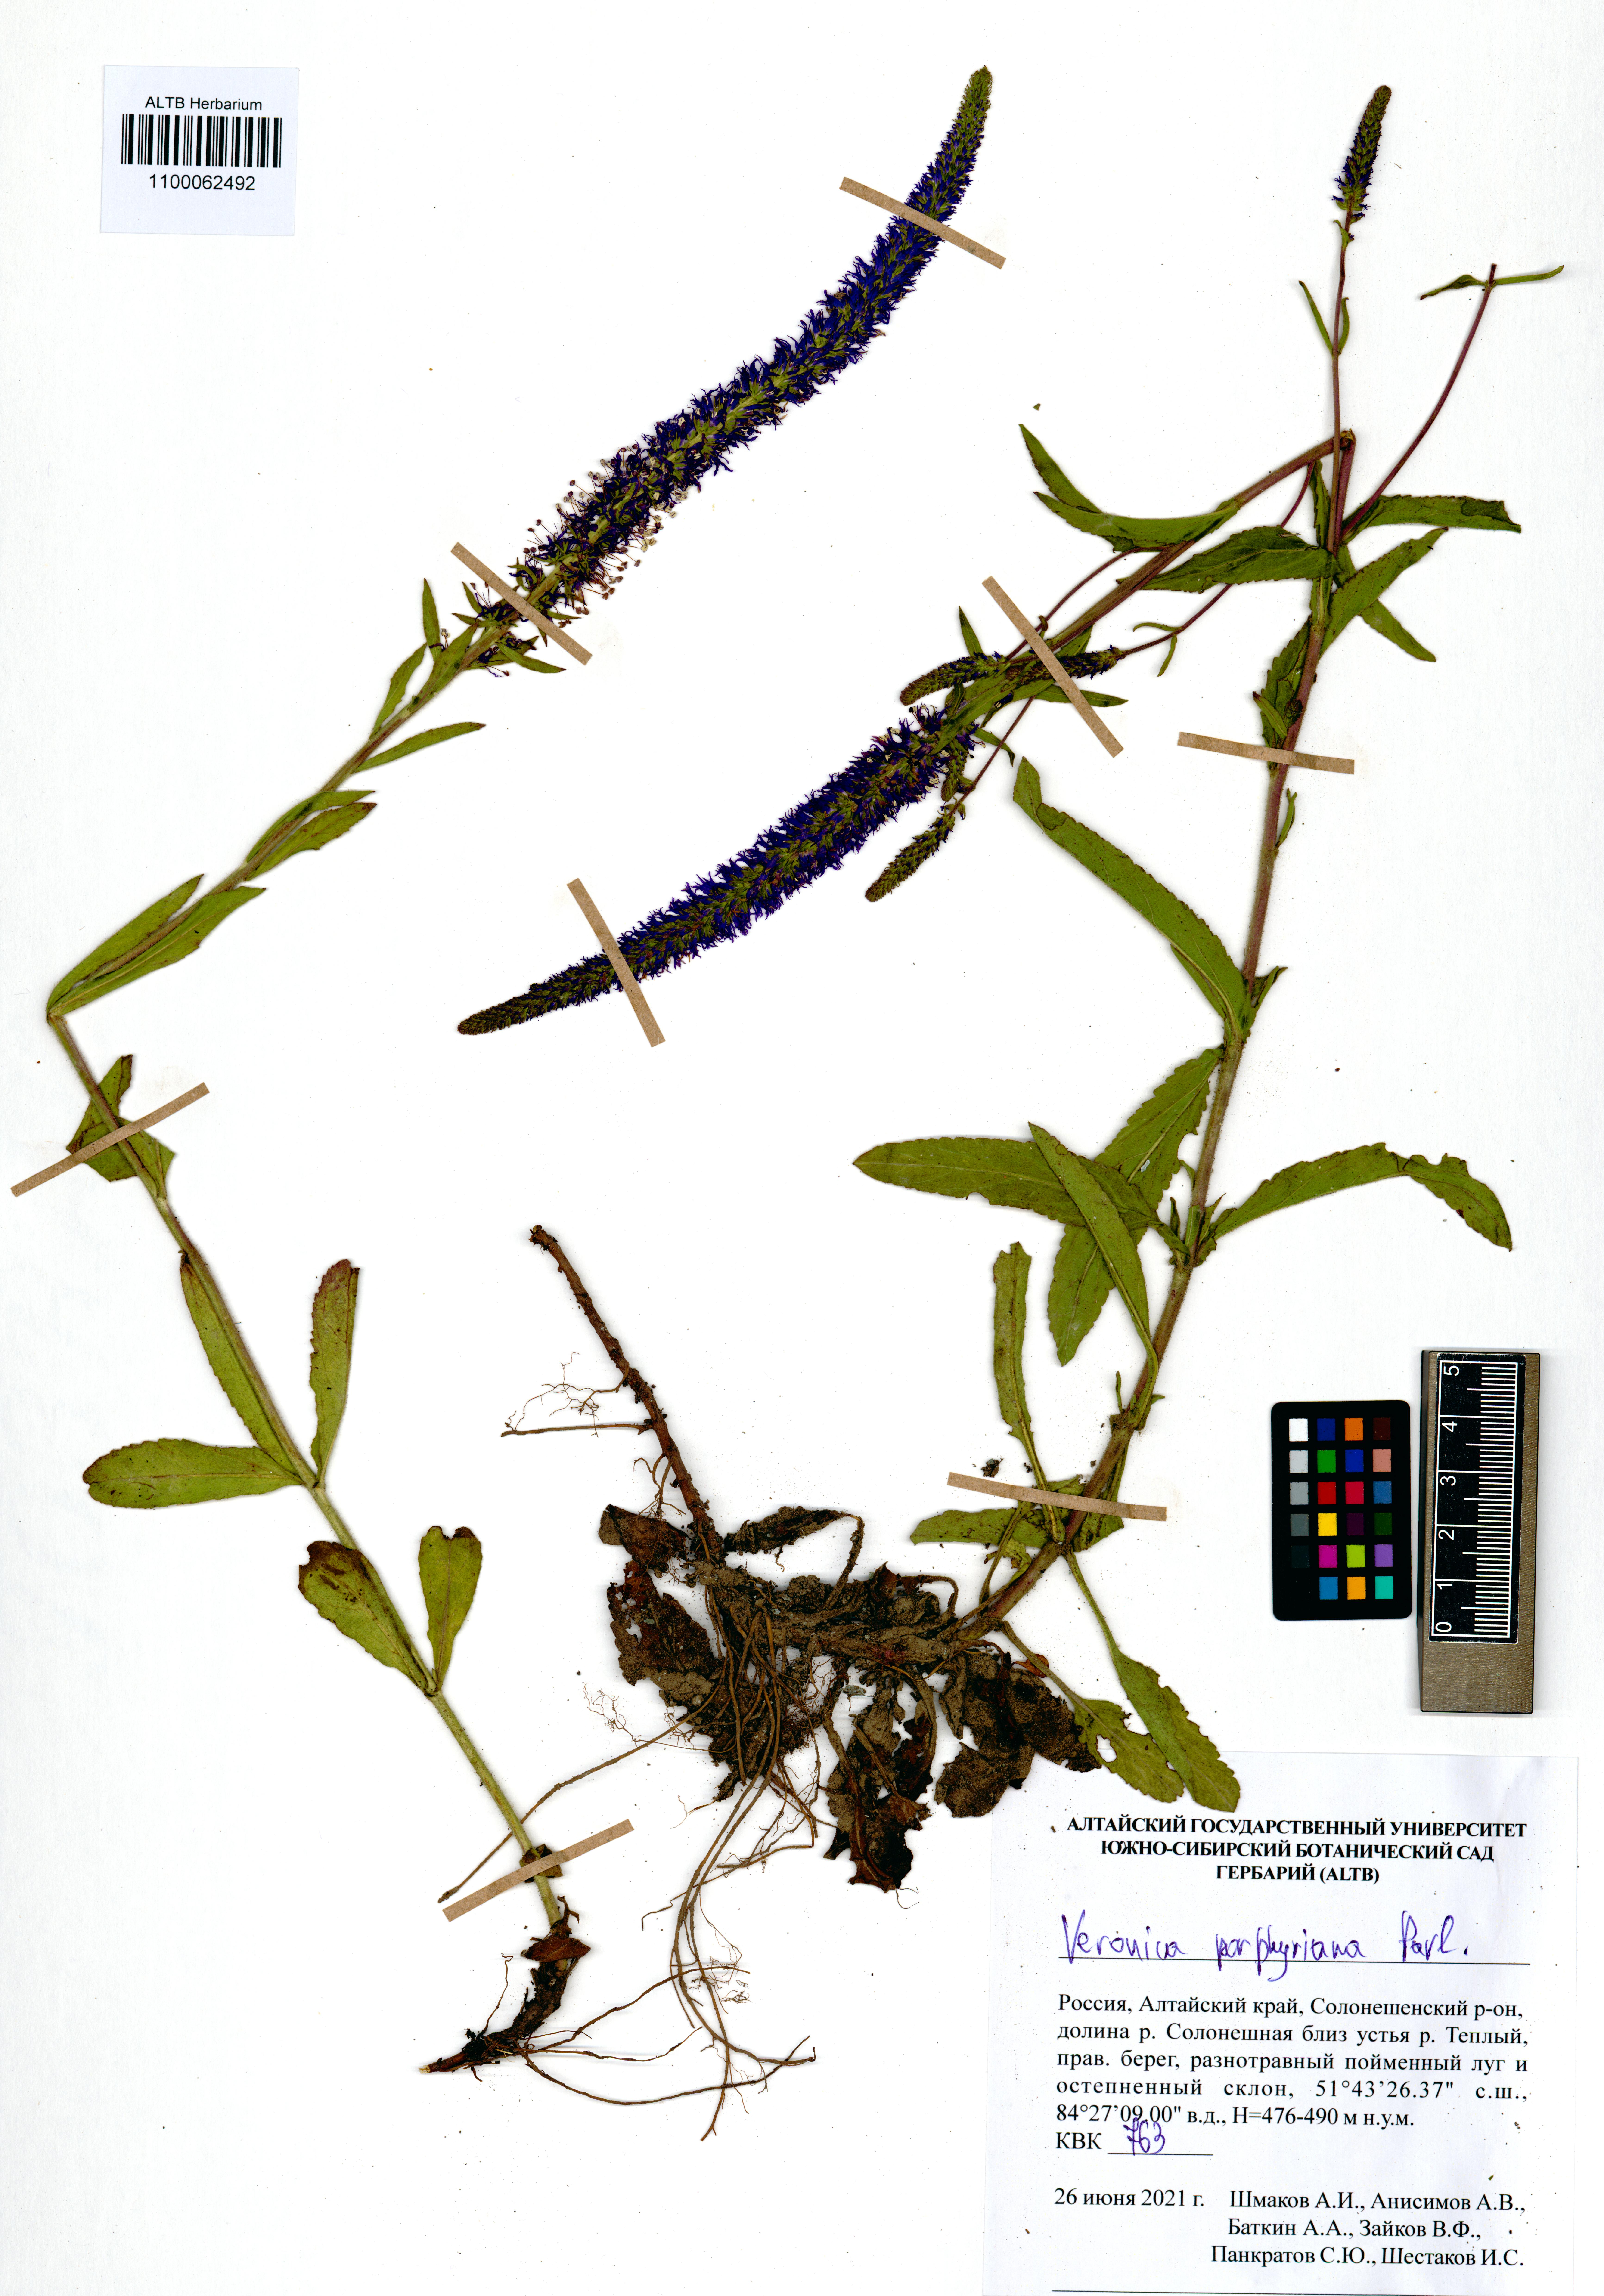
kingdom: Plantae
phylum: Tracheophyta
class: Magnoliopsida
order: Lamiales
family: Plantaginaceae
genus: Veronica
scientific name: Veronica porphyriana
